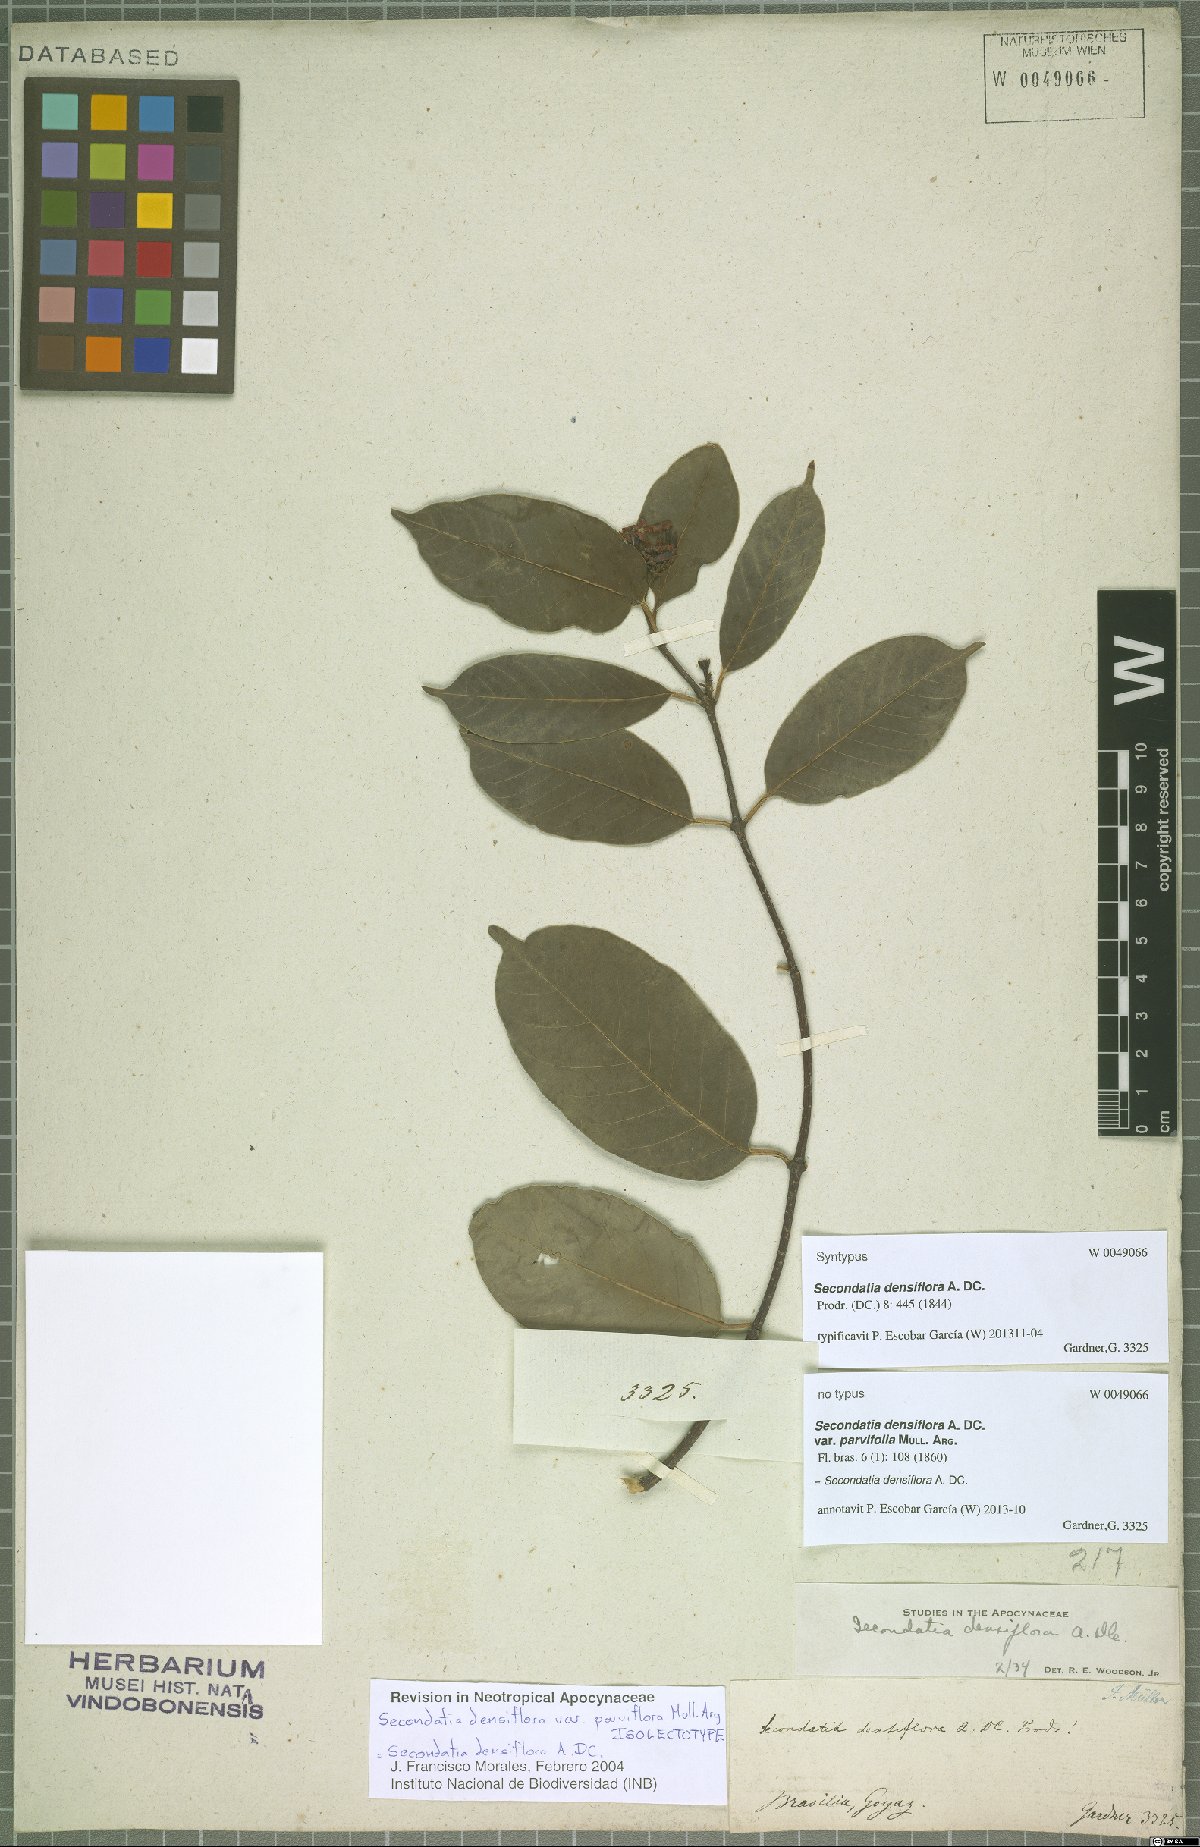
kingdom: Plantae
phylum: Tracheophyta
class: Magnoliopsida
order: Gentianales
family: Apocynaceae
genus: Secondatia
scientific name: Secondatia densiflora
